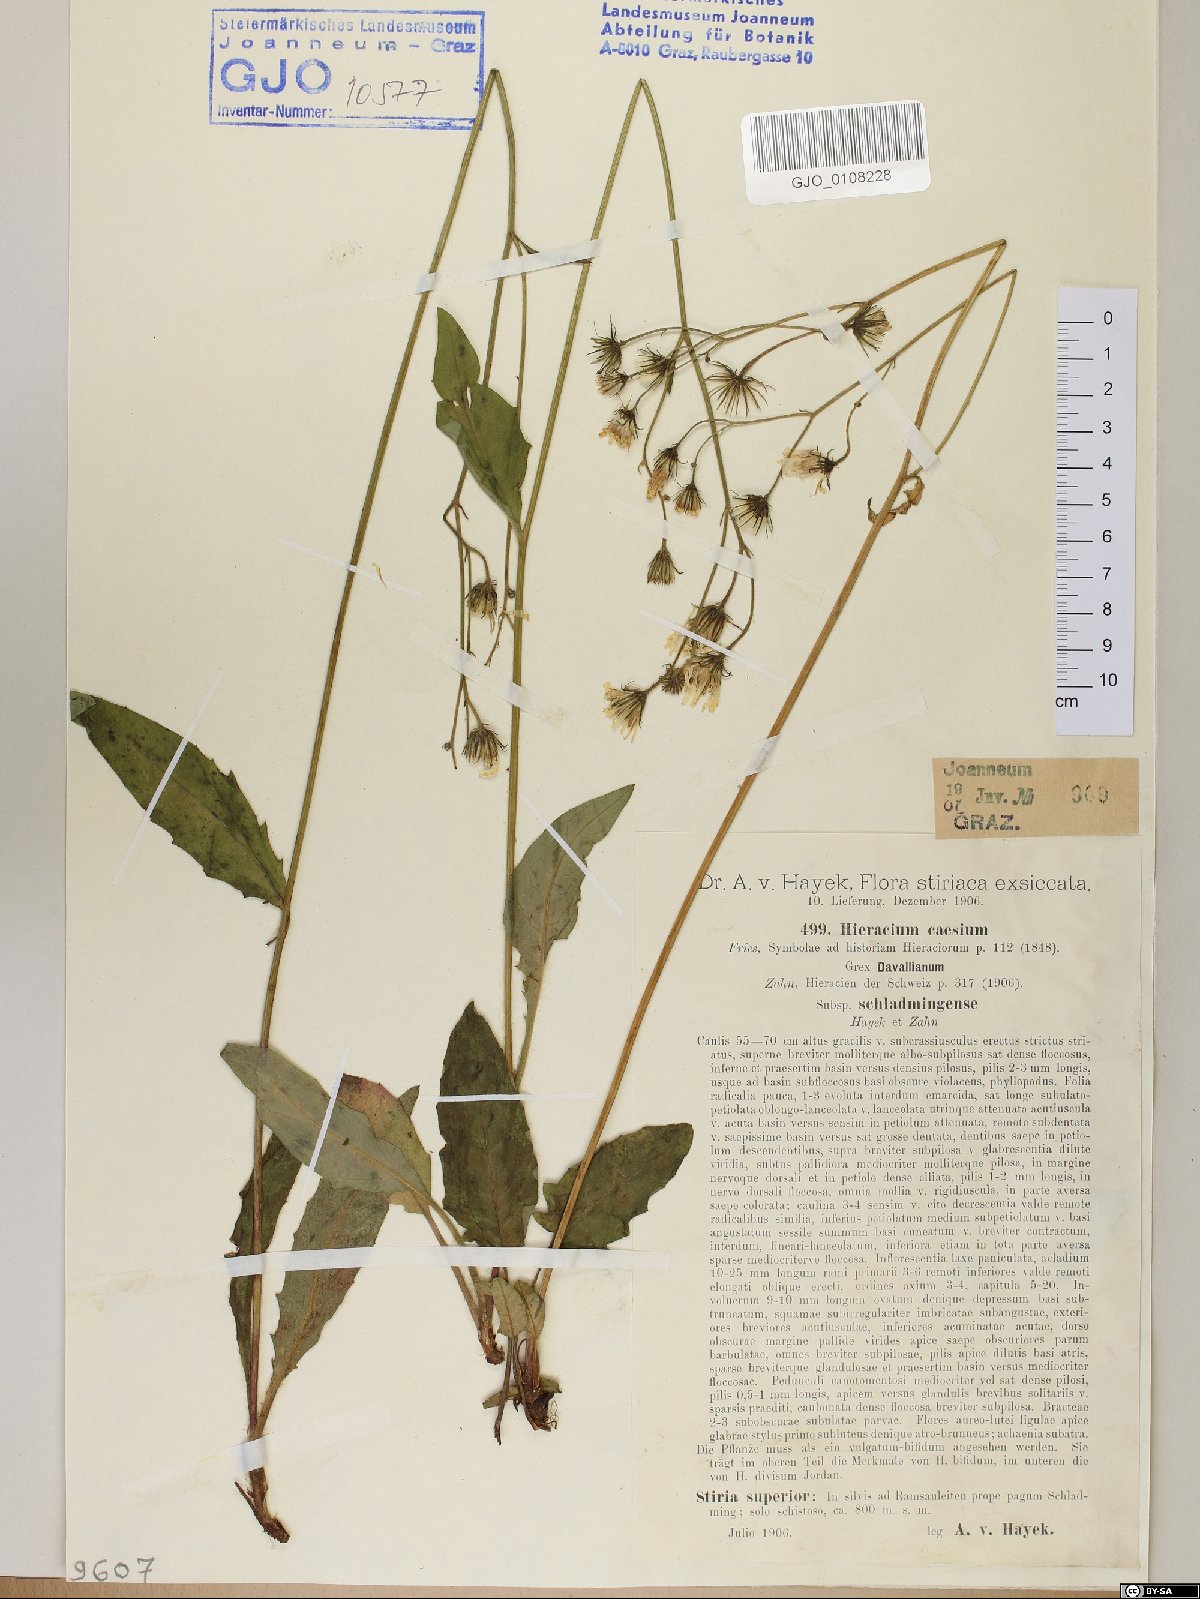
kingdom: Plantae
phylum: Tracheophyta
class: Magnoliopsida
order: Asterales
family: Asteraceae
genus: Hieracium
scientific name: Hieracium caesium
